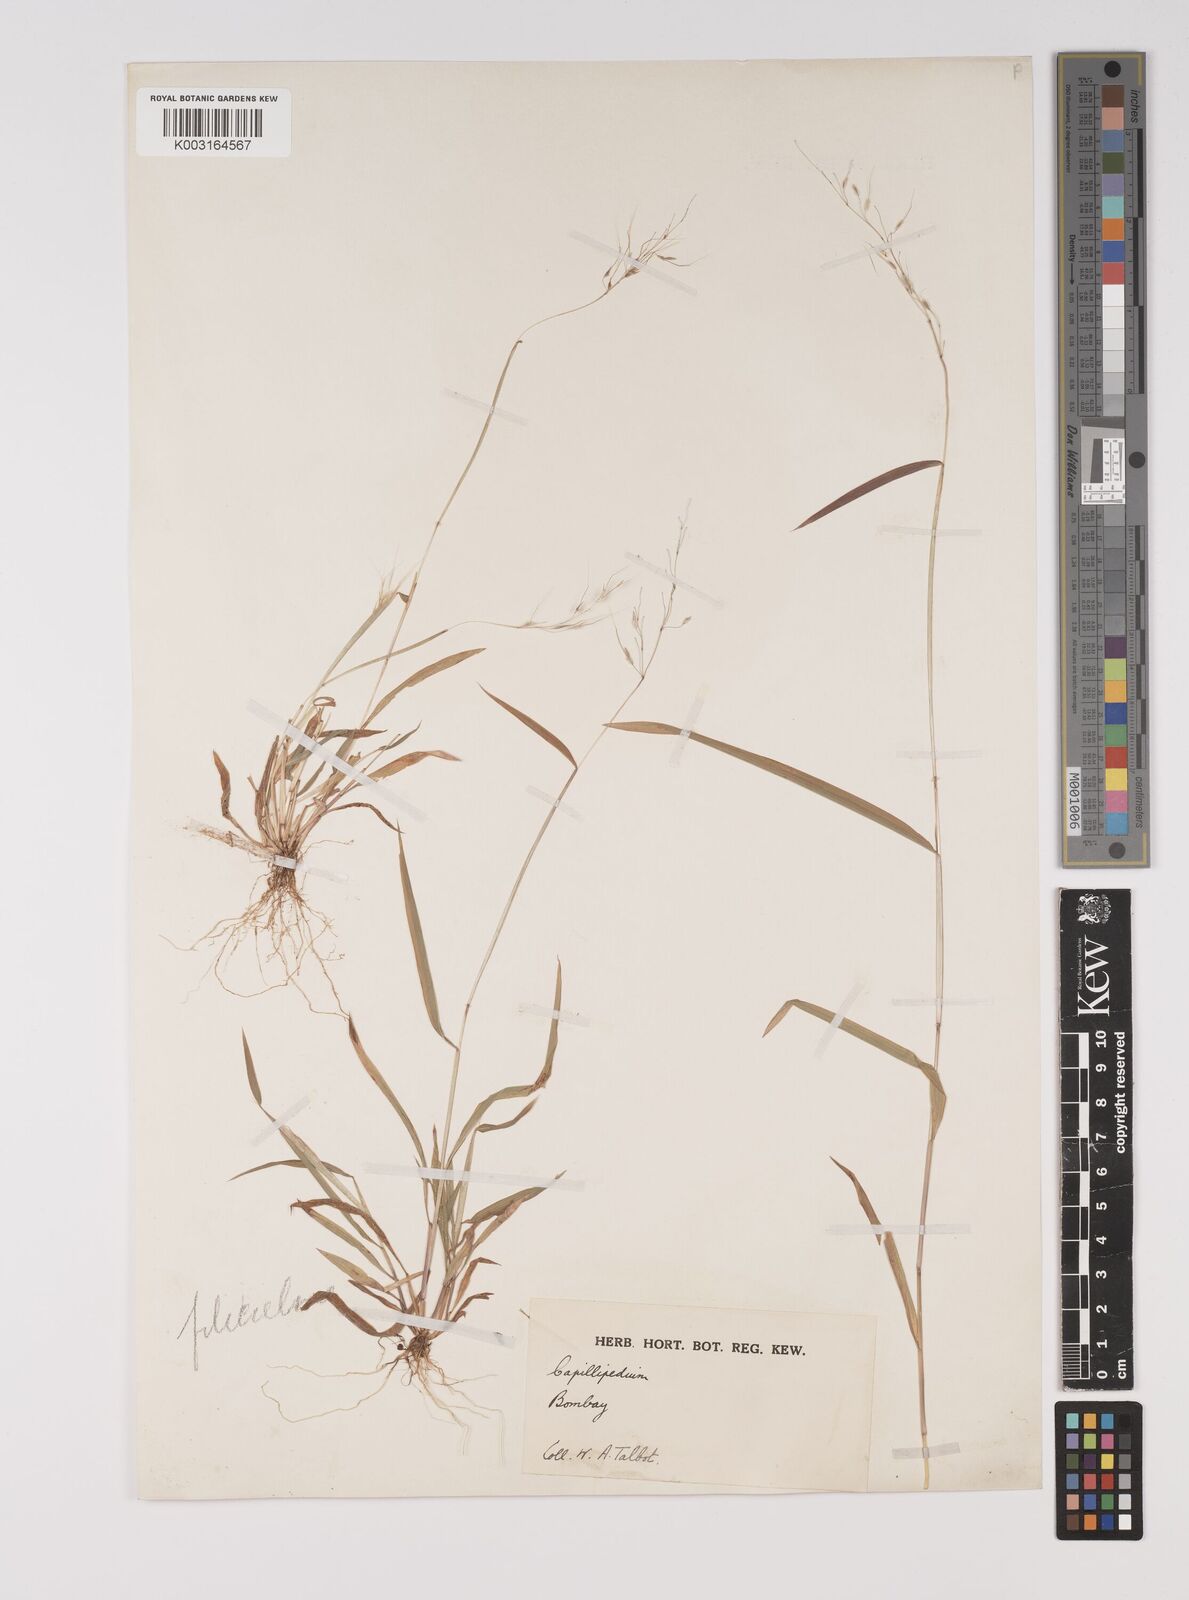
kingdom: Plantae
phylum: Tracheophyta
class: Liliopsida
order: Poales
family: Poaceae
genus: Capillipedium
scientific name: Capillipedium filiculme
